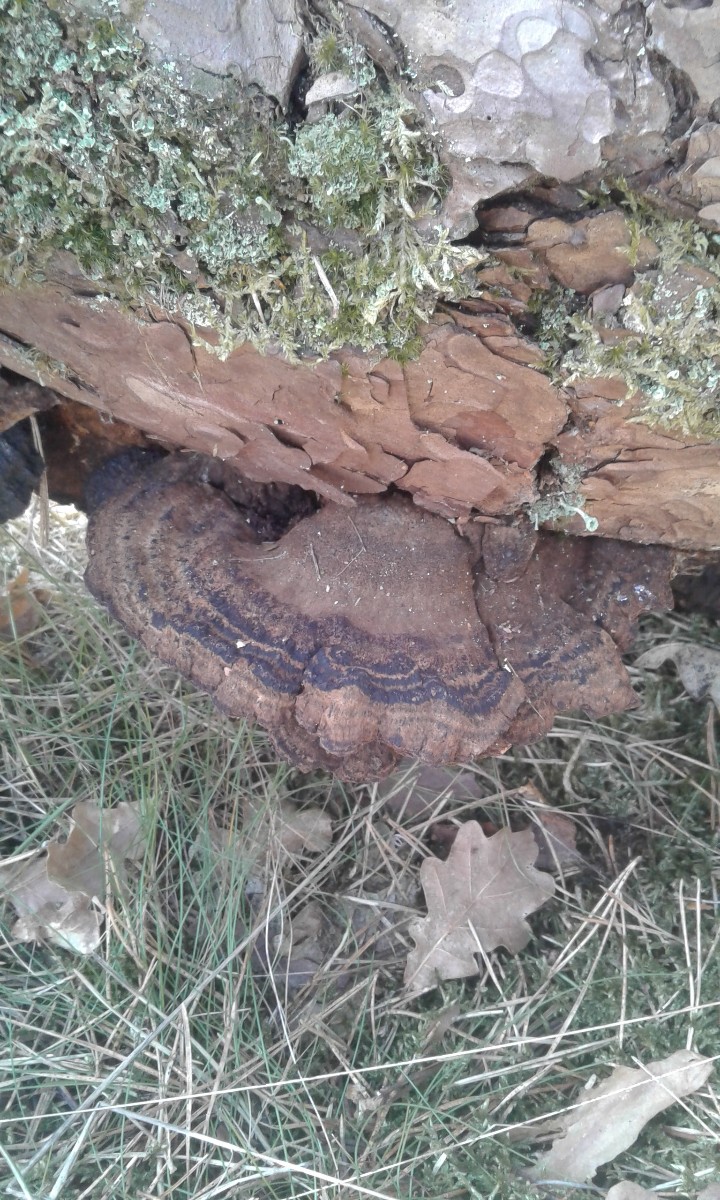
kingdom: Fungi
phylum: Basidiomycota
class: Agaricomycetes
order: Polyporales
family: Ischnodermataceae
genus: Ischnoderma
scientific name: Ischnoderma benzoinum
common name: gran-tjæreporesvamp
